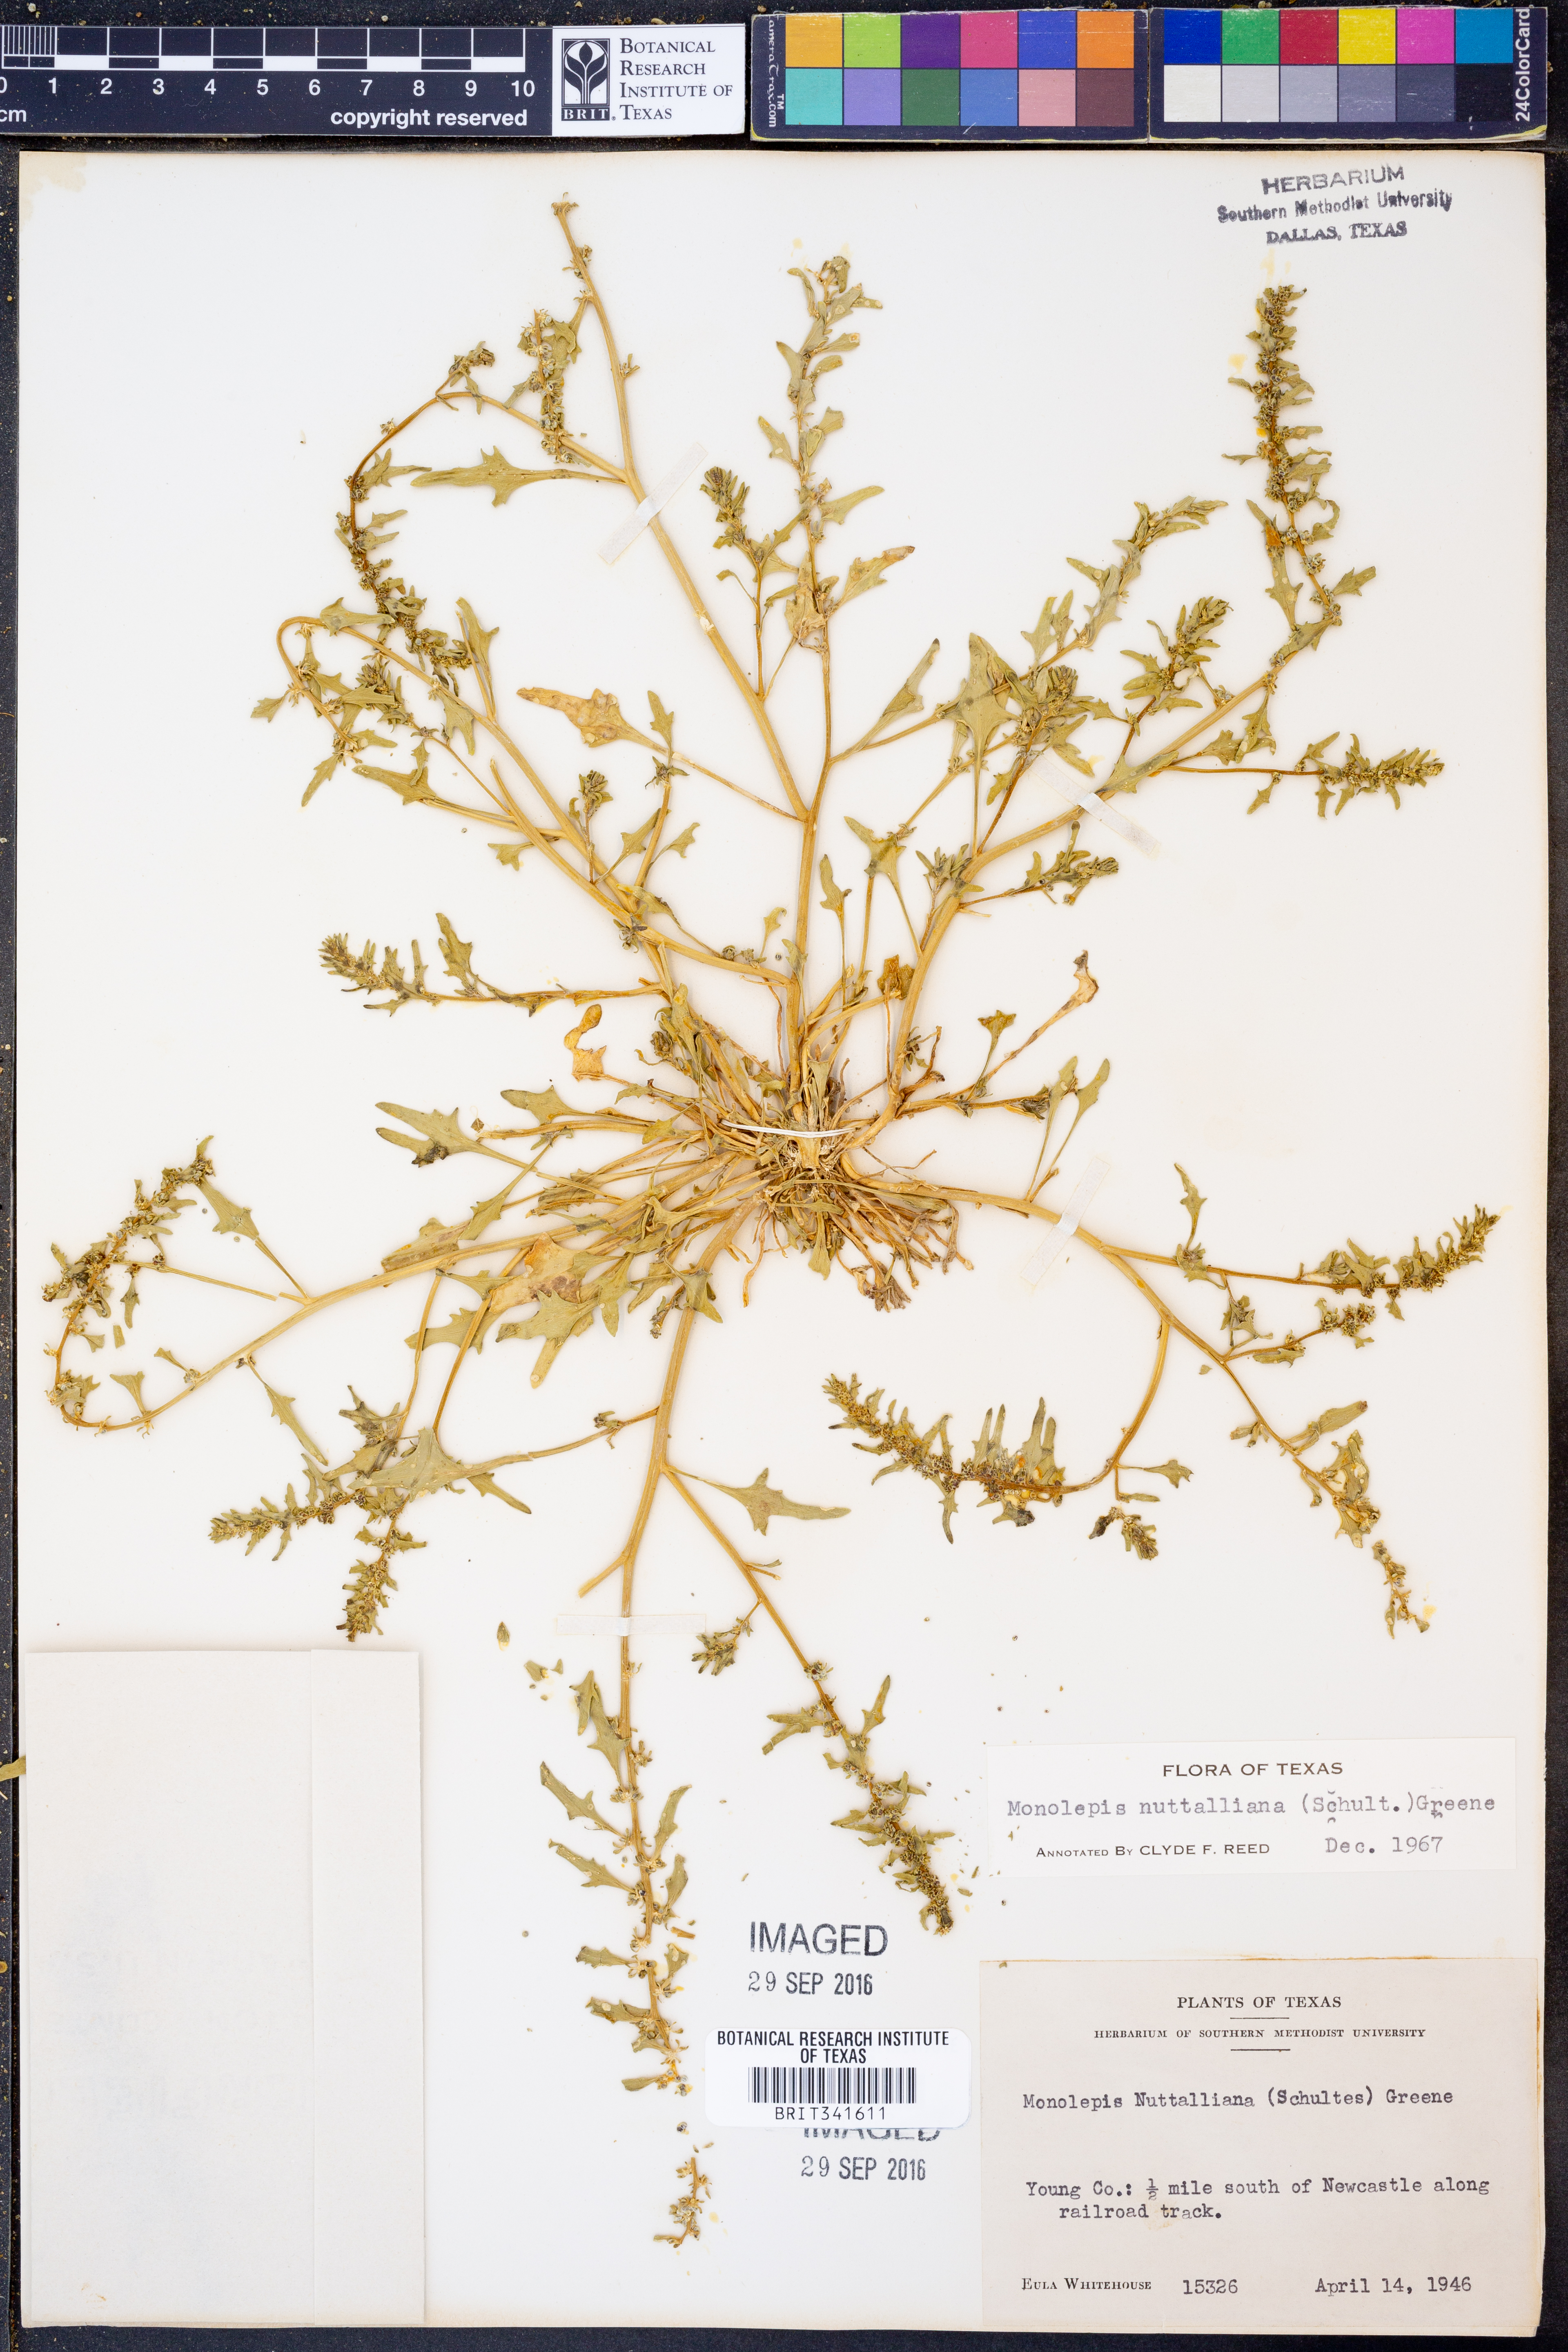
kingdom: Plantae
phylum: Tracheophyta
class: Magnoliopsida
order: Caryophyllales
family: Amaranthaceae
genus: Blitum
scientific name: Blitum nuttallianum
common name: Poverty-weed
